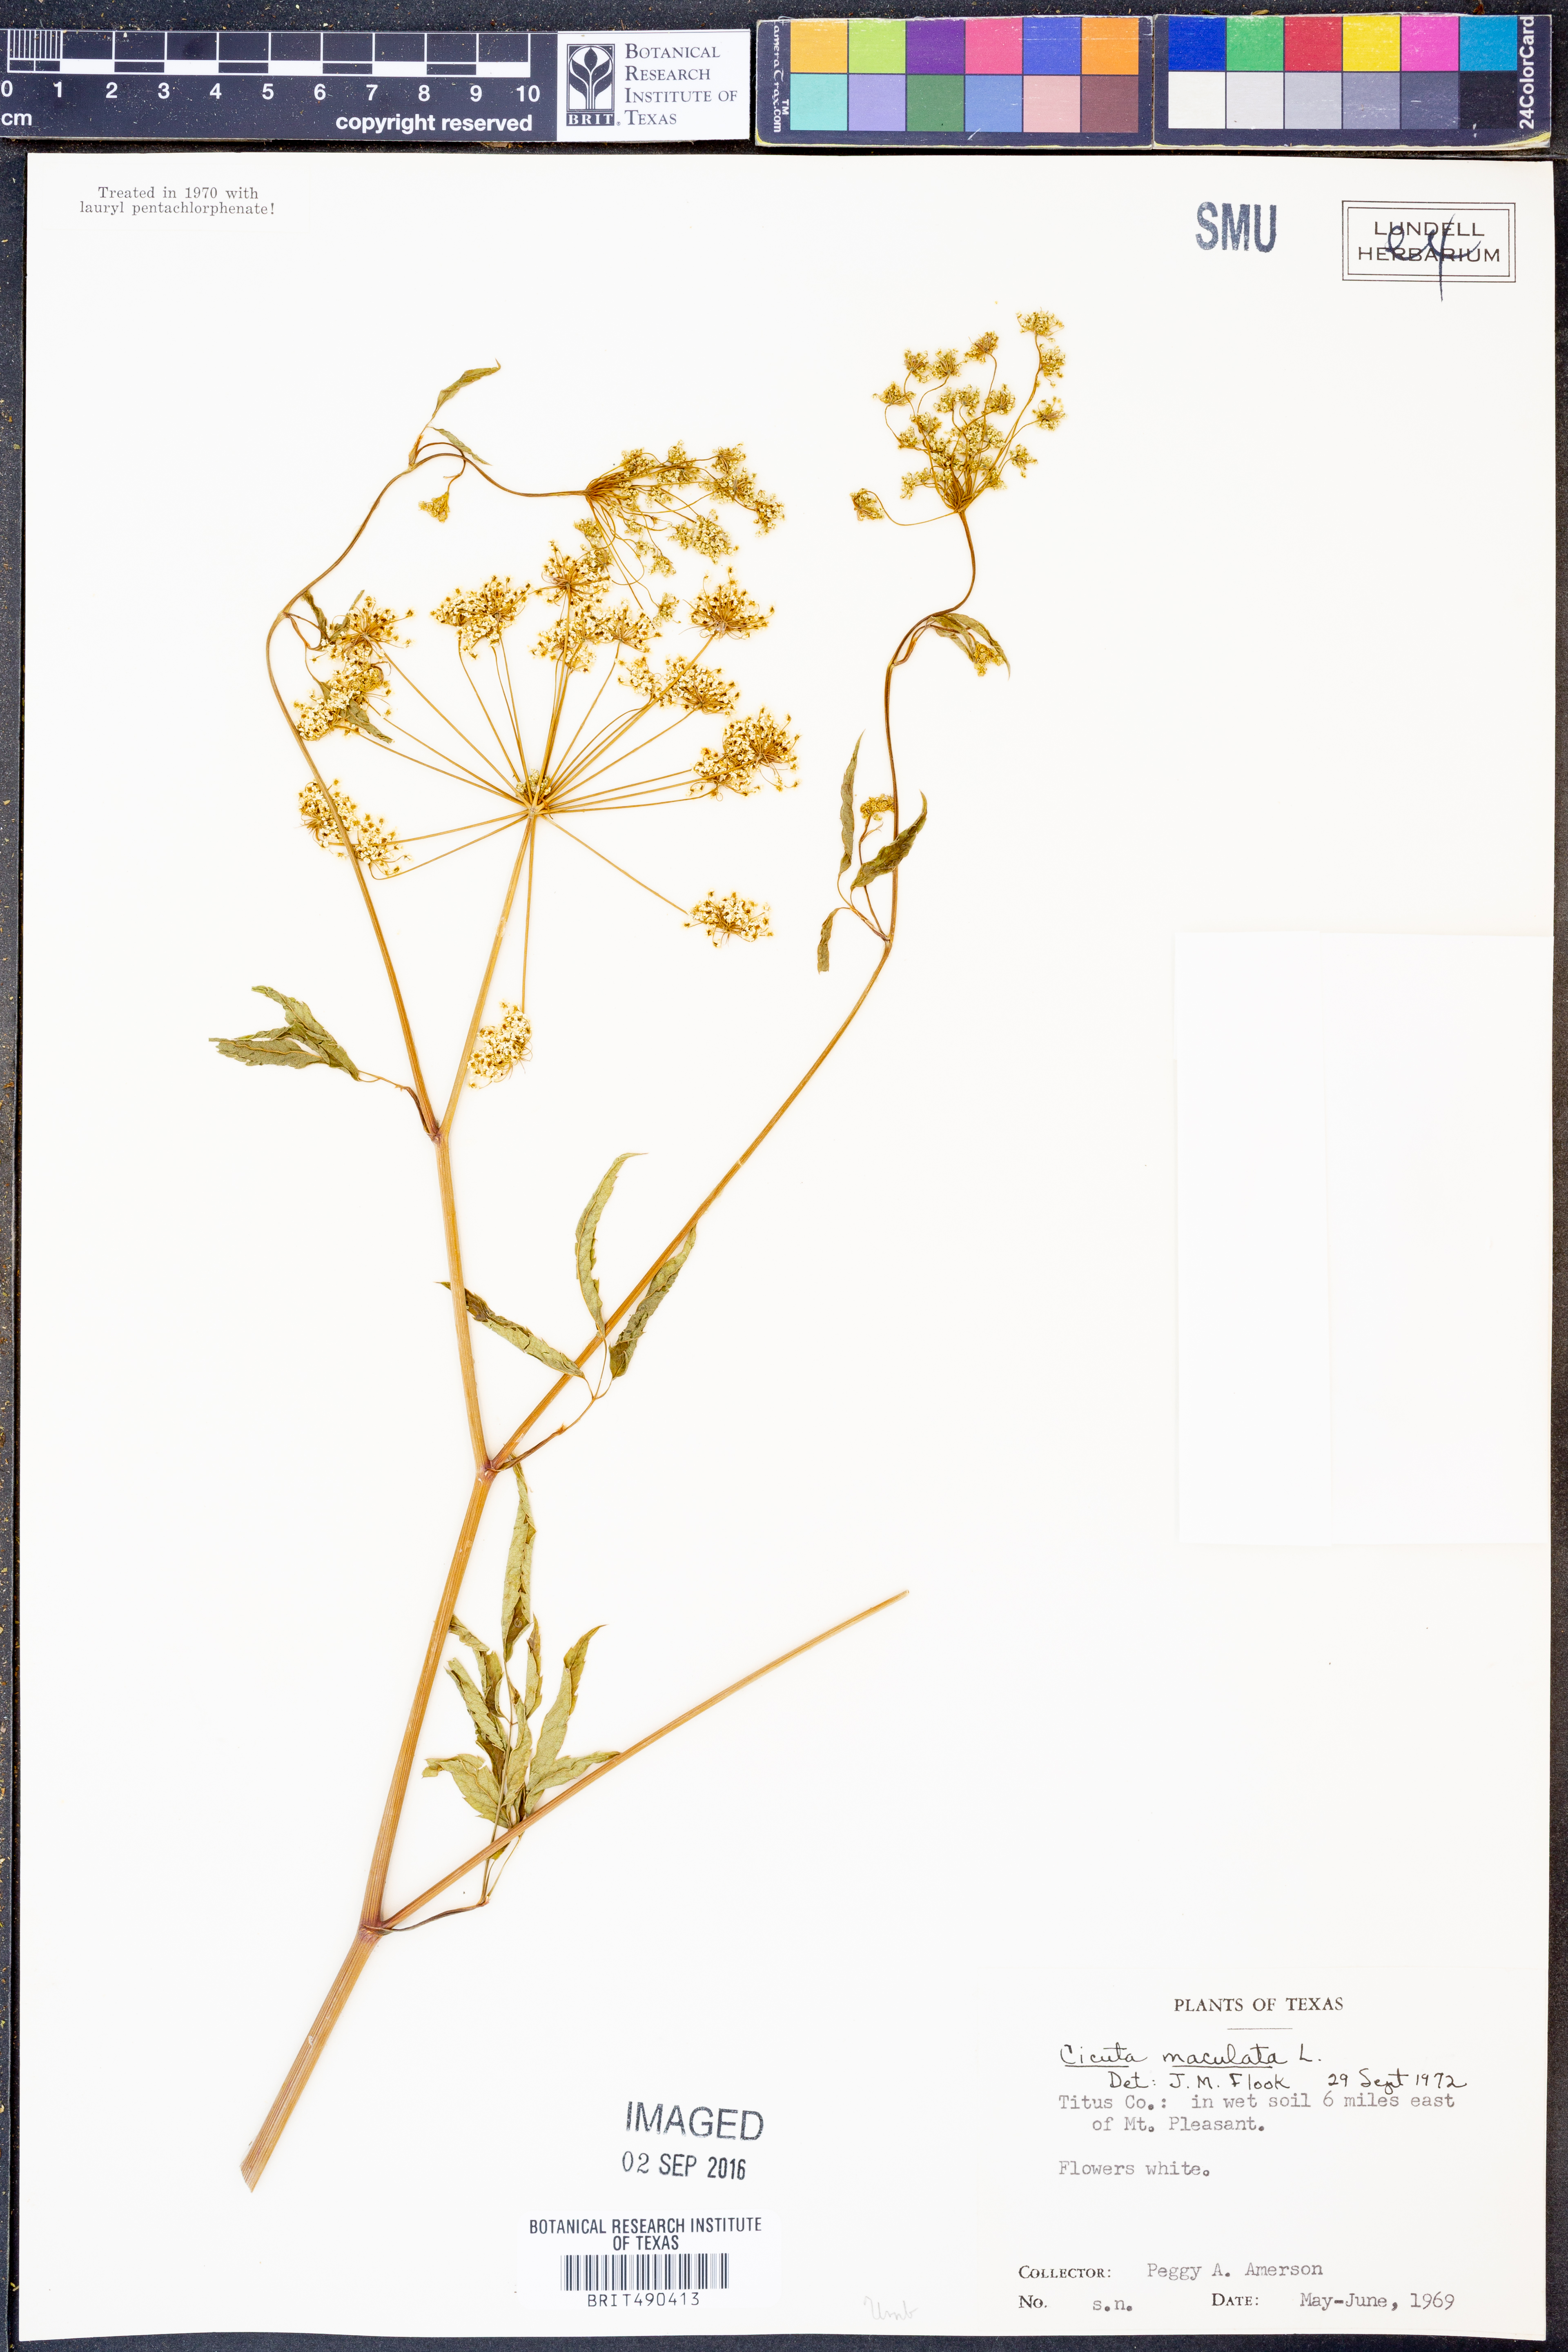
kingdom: Plantae
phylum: Tracheophyta
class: Magnoliopsida
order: Apiales
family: Apiaceae
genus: Cicuta
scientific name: Cicuta maculata
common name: Spotted cowbane
